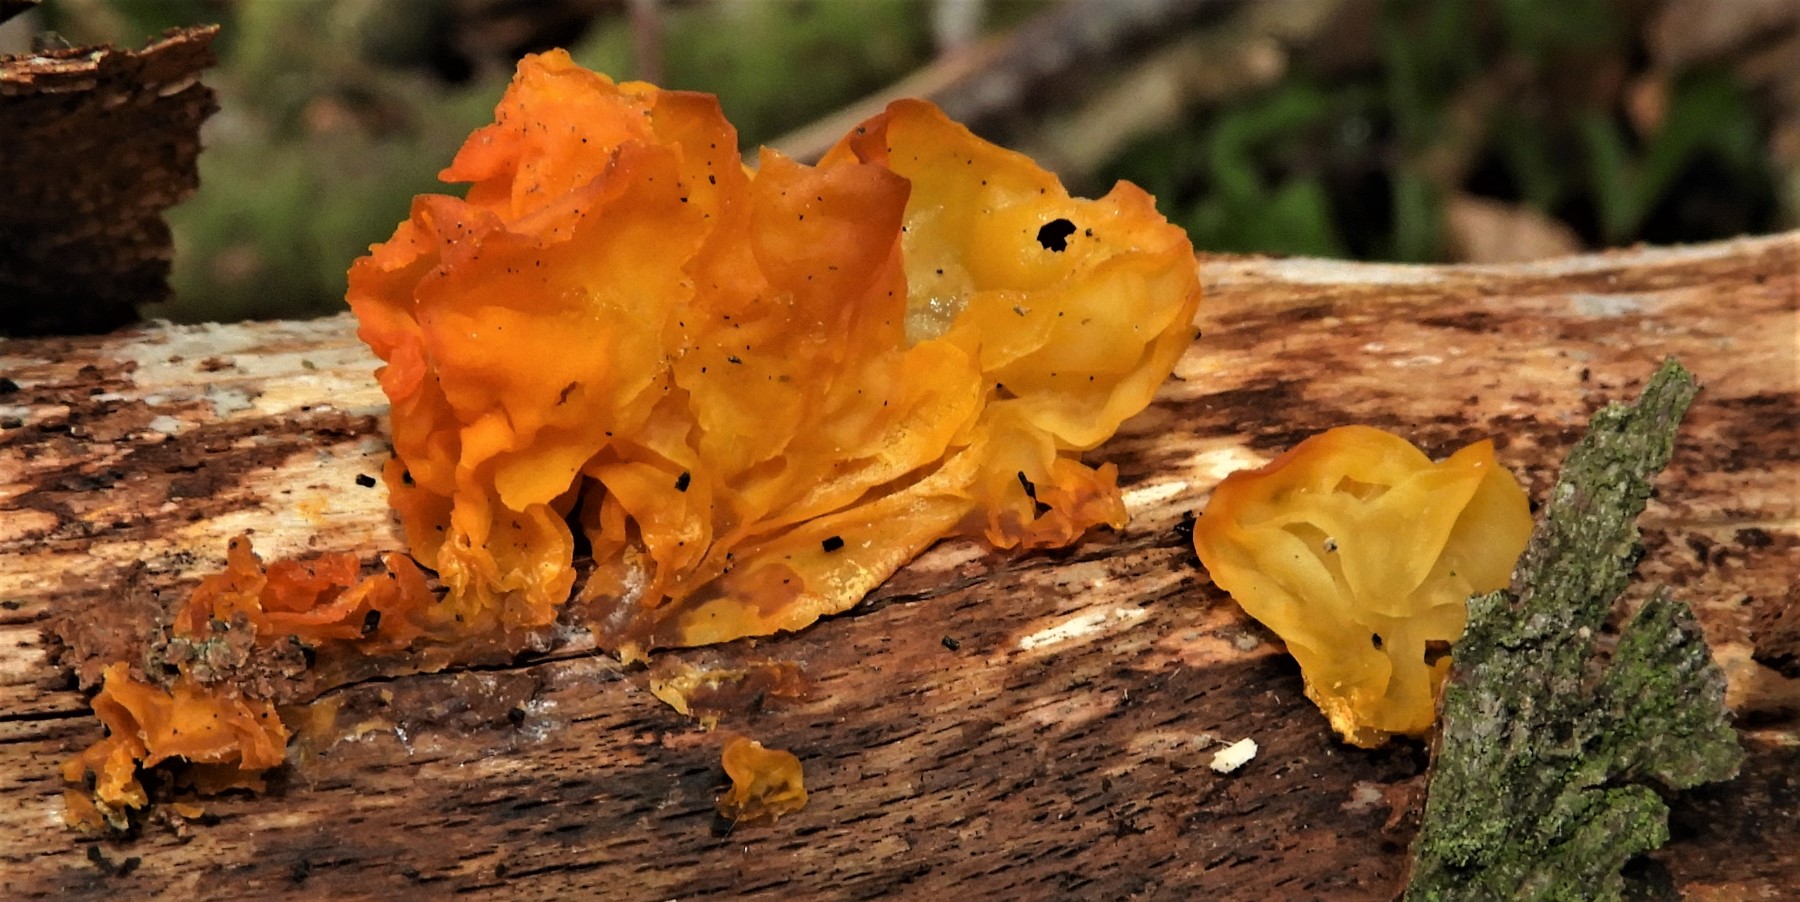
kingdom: Fungi
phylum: Basidiomycota
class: Tremellomycetes
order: Tremellales
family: Tremellaceae
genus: Tremella
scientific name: Tremella mesenterica
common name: gul bævresvamp
